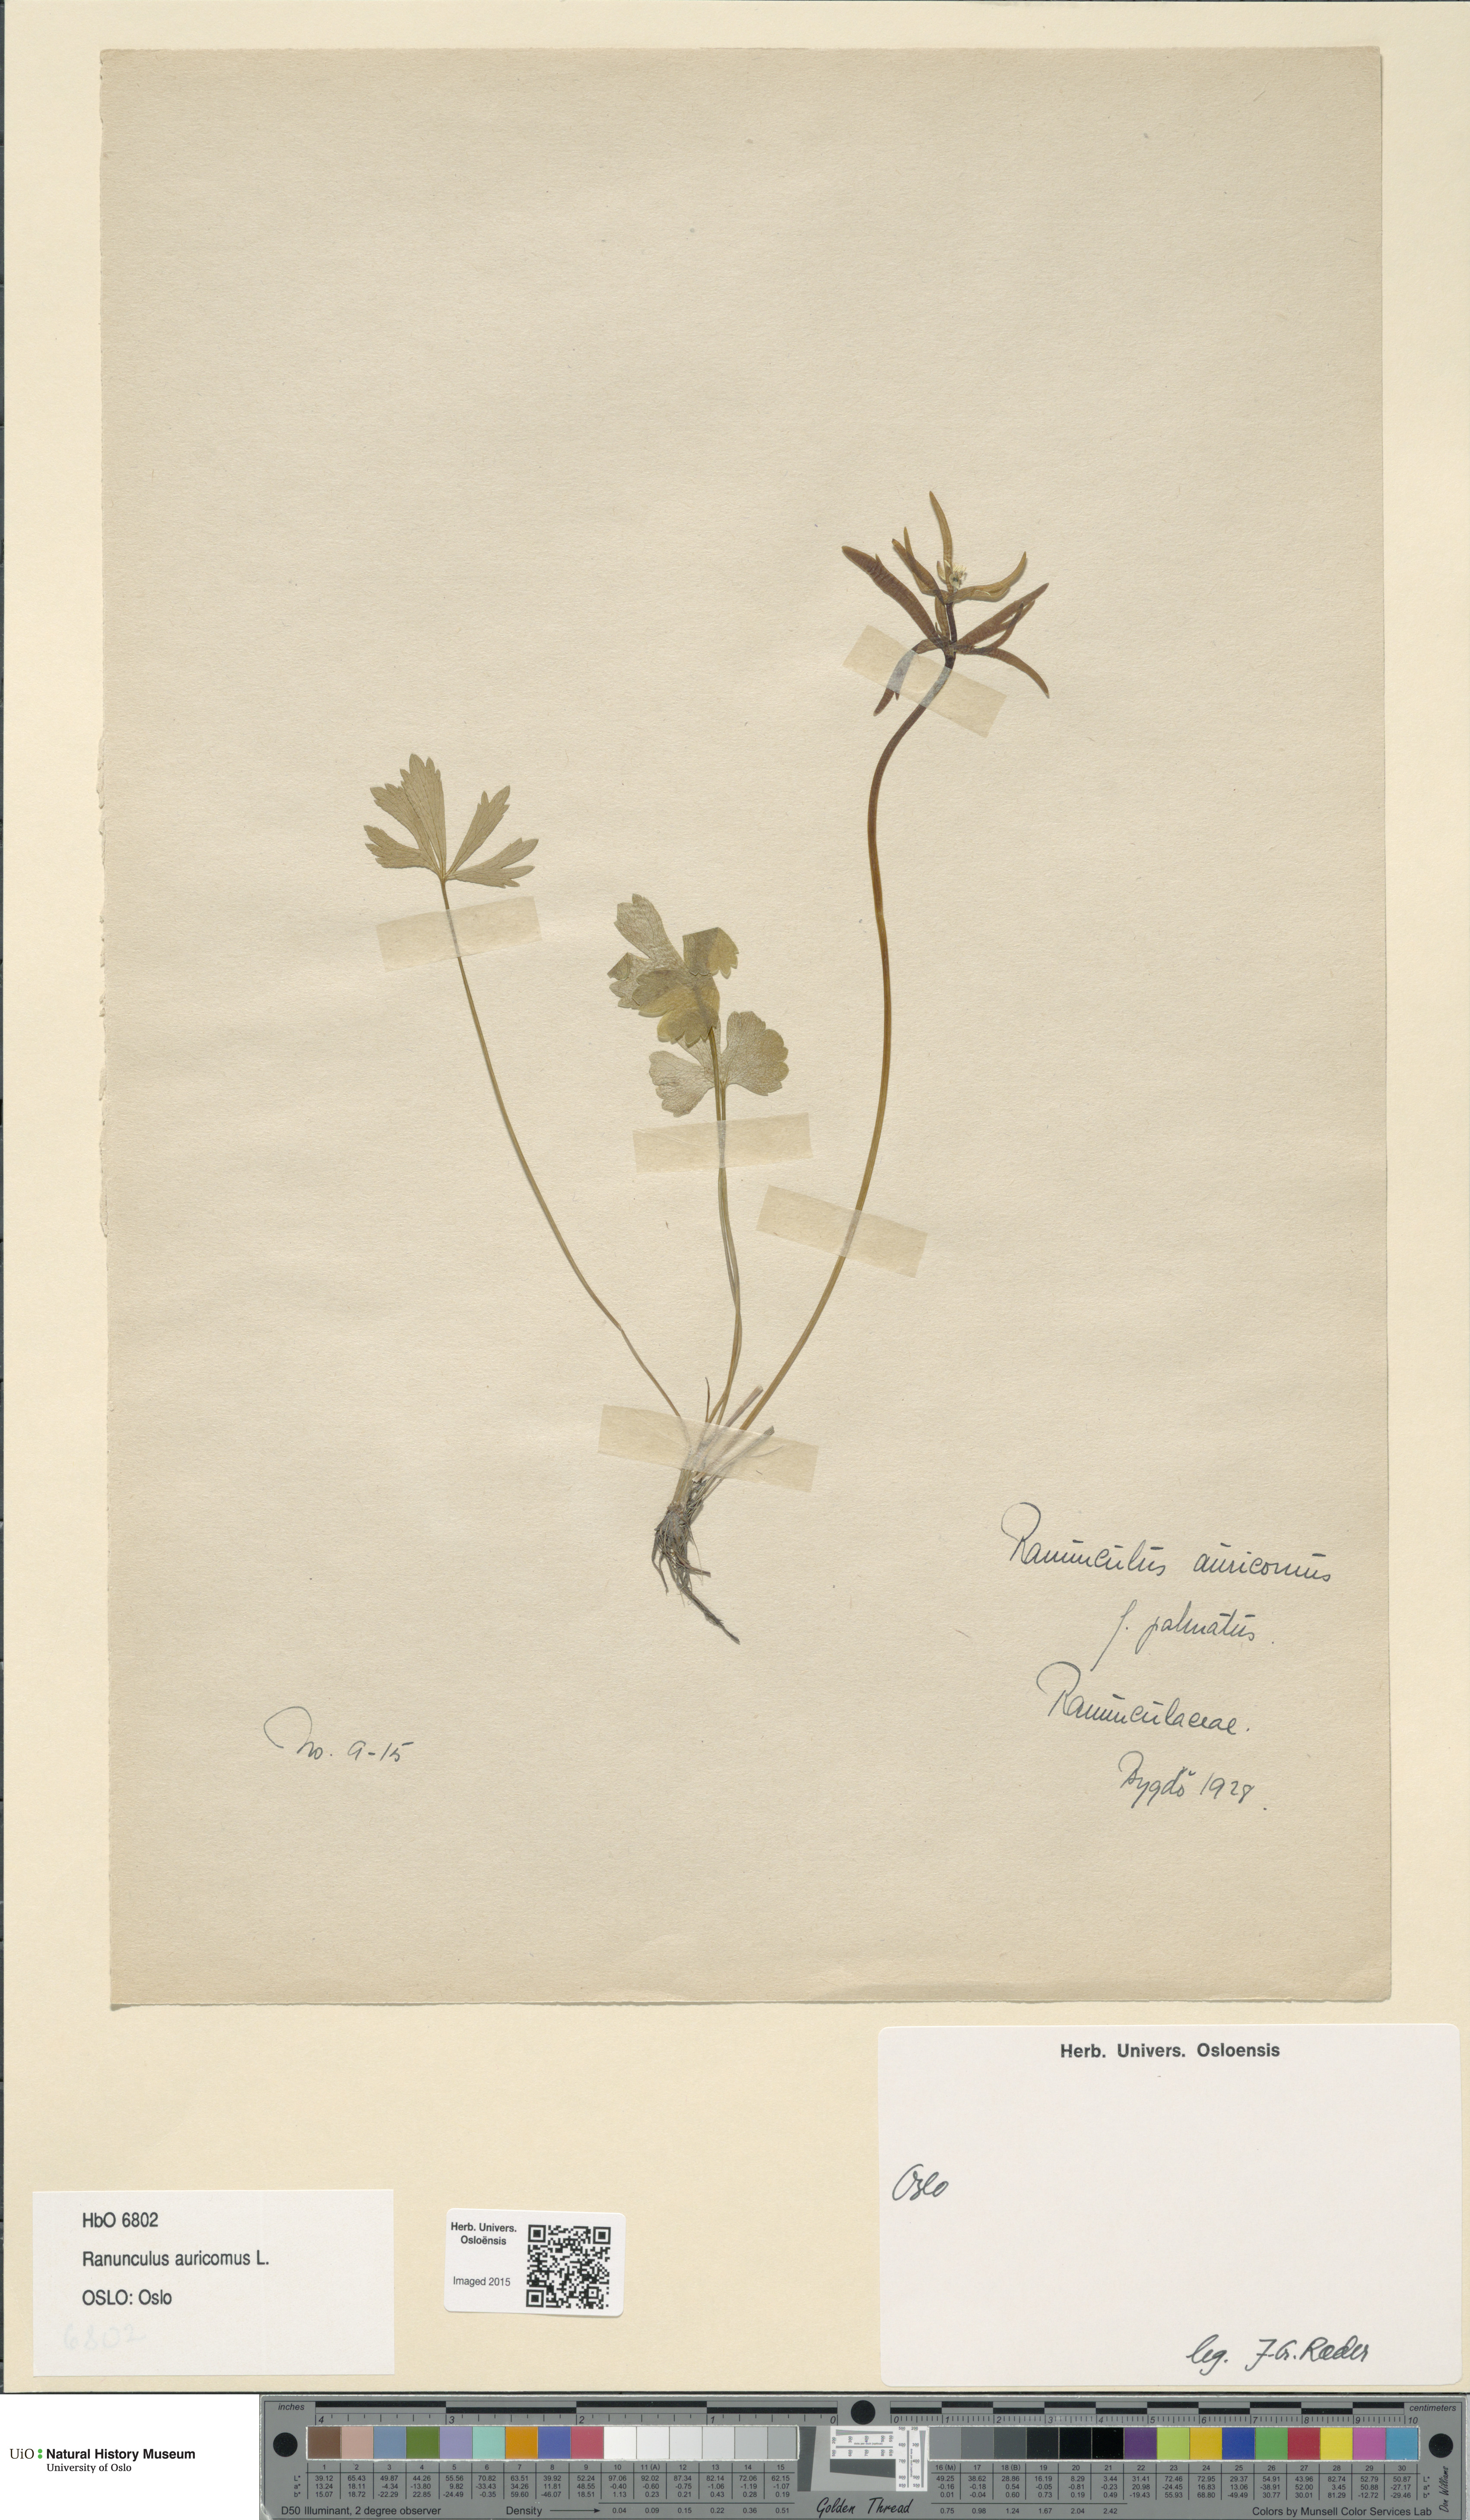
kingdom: Plantae
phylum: Tracheophyta
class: Magnoliopsida
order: Ranunculales
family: Ranunculaceae
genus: Ranunculus
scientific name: Ranunculus auricomus
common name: Goldilocks buttercup
